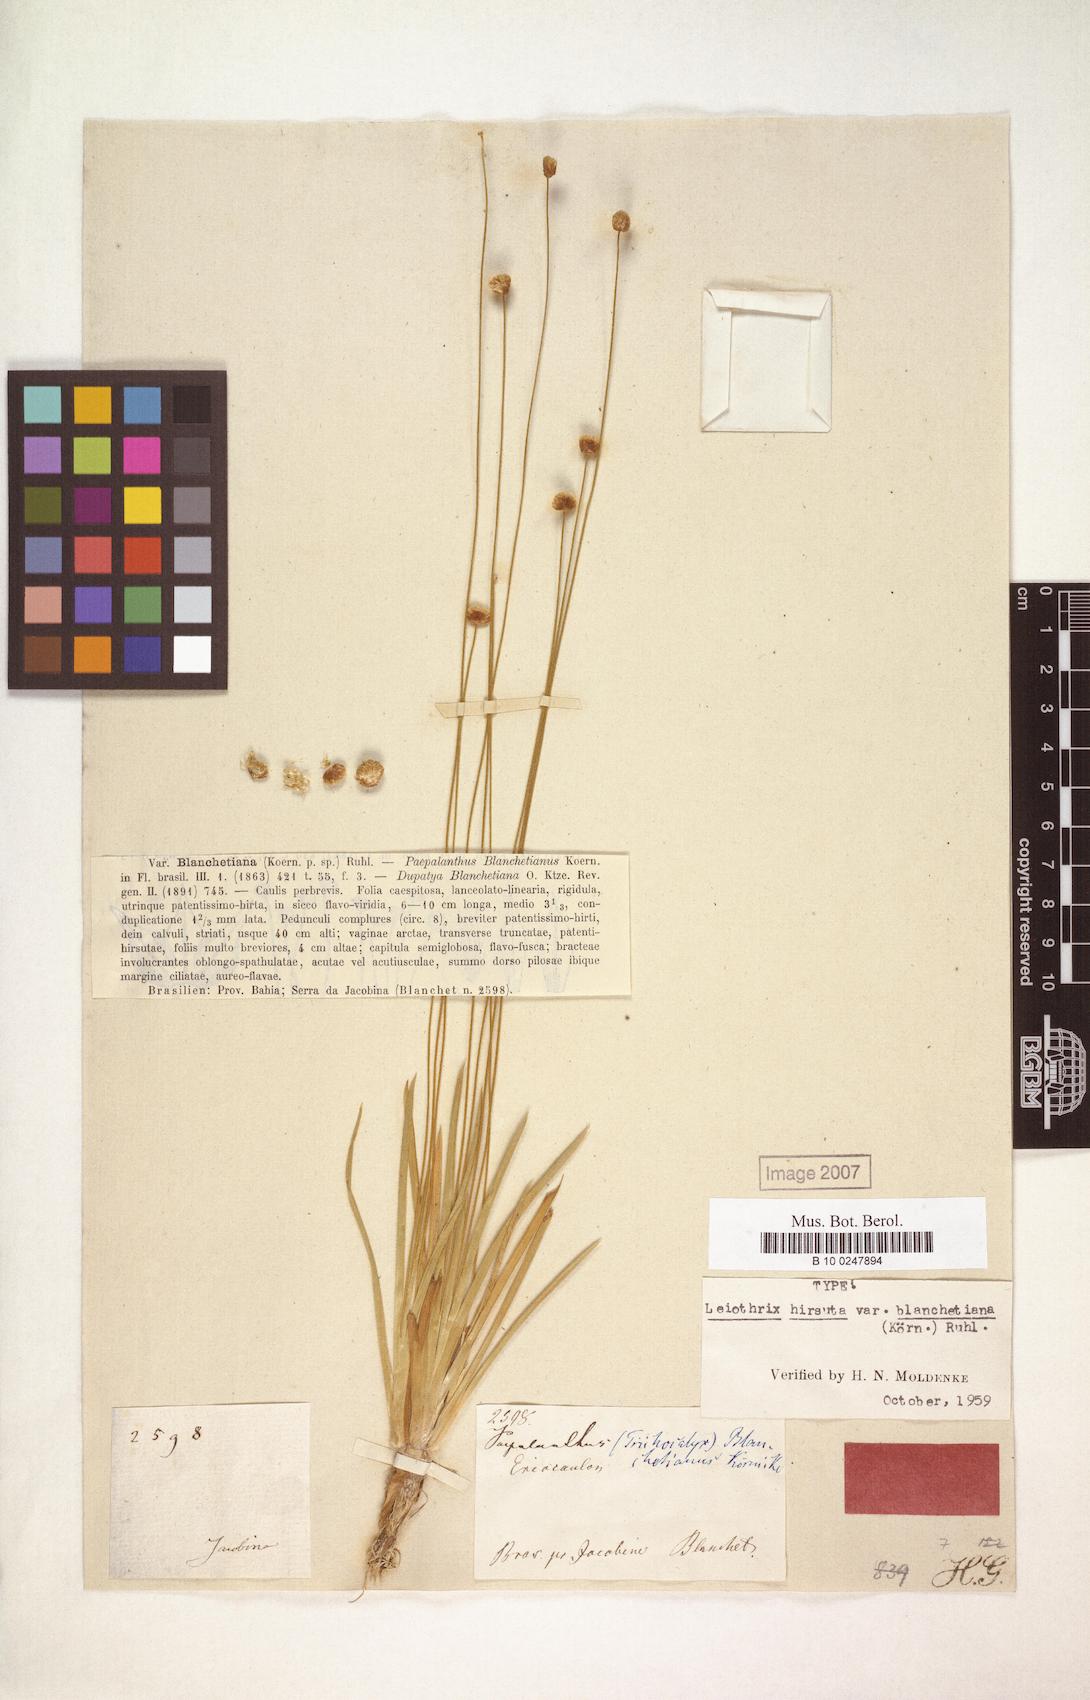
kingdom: Plantae
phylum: Tracheophyta
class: Liliopsida
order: Poales
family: Eriocaulaceae
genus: Leiothrix
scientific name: Leiothrix hirsuta
